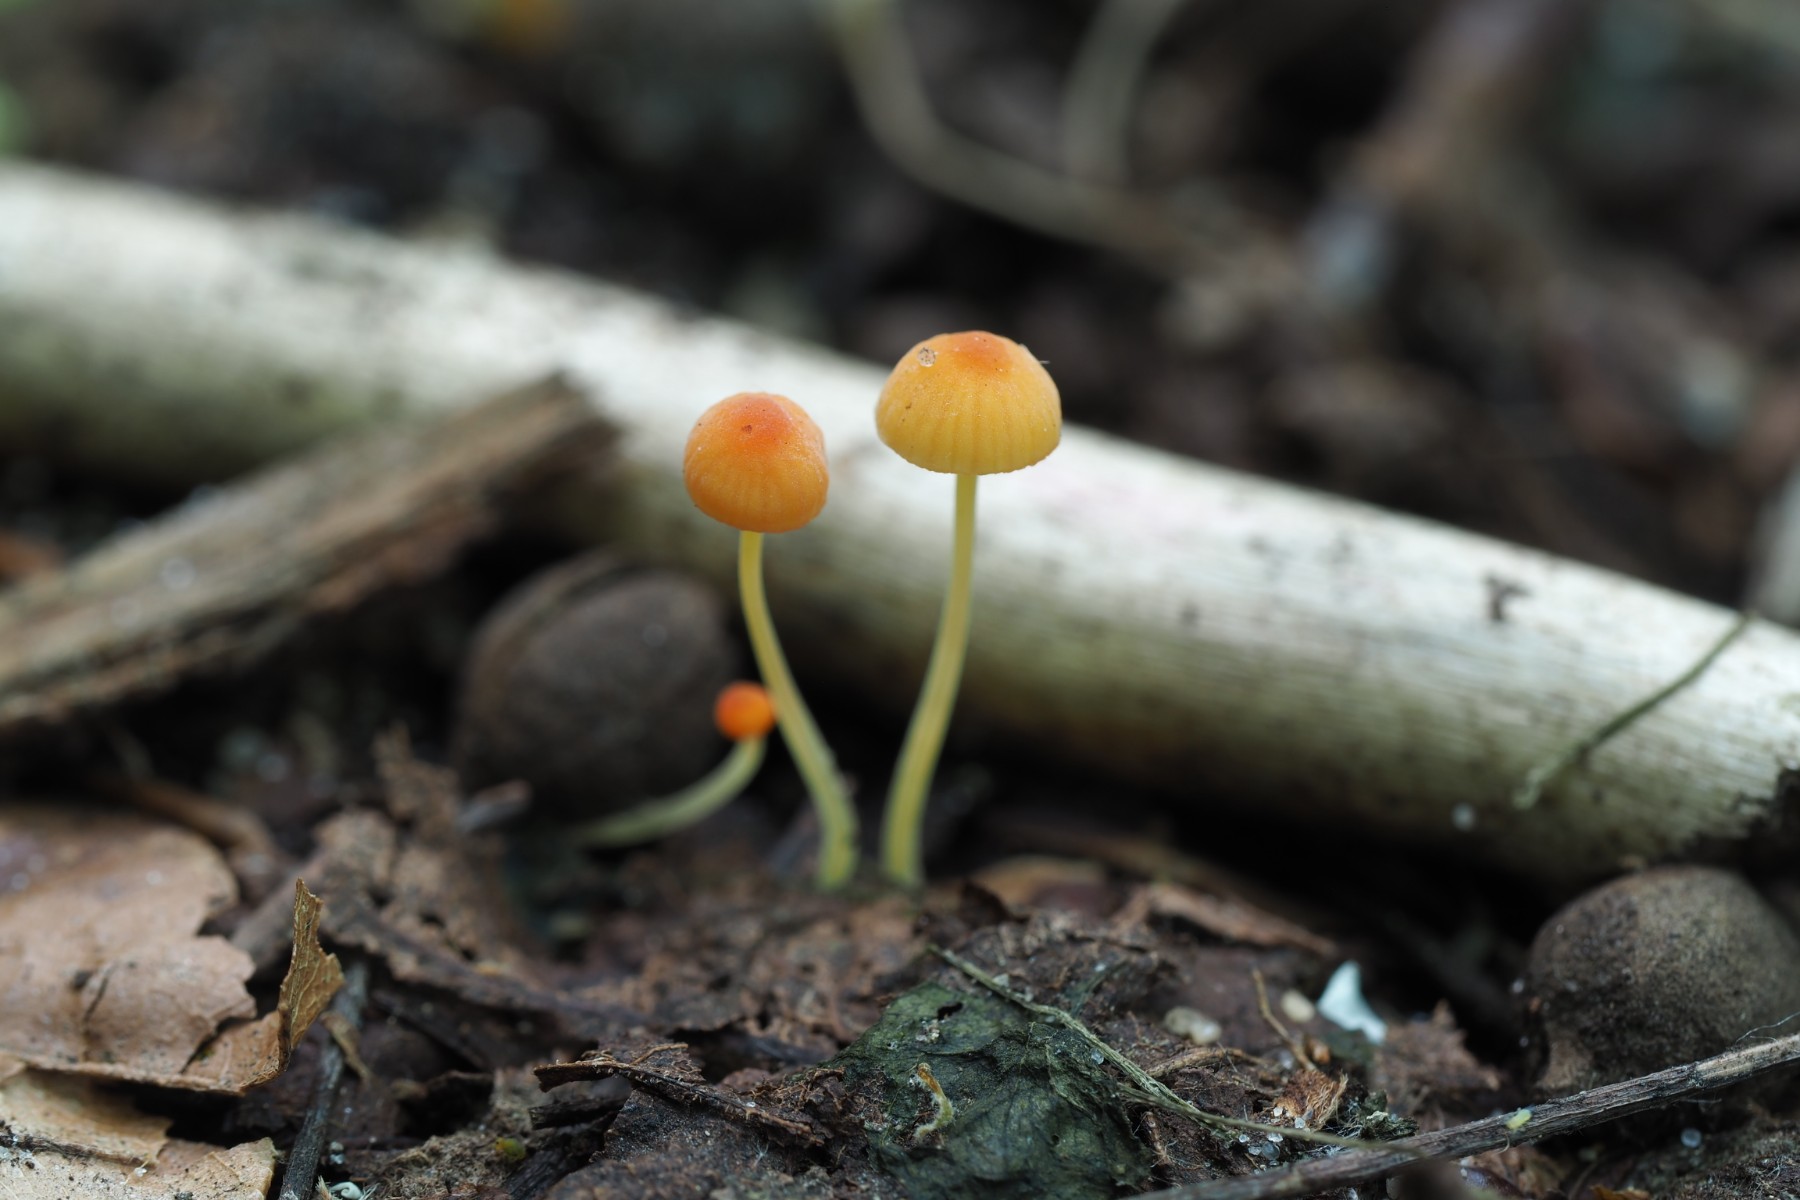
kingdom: Fungi
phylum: Basidiomycota
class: Agaricomycetes
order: Agaricales
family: Mycenaceae
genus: Mycena
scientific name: Mycena acicula
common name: orange huesvamp
